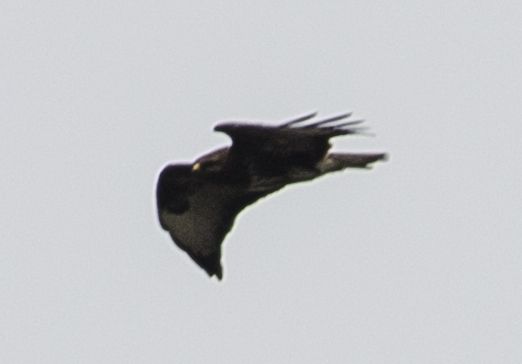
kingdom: Animalia
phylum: Chordata
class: Aves
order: Accipitriformes
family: Accipitridae
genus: Buteo
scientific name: Buteo buteo
